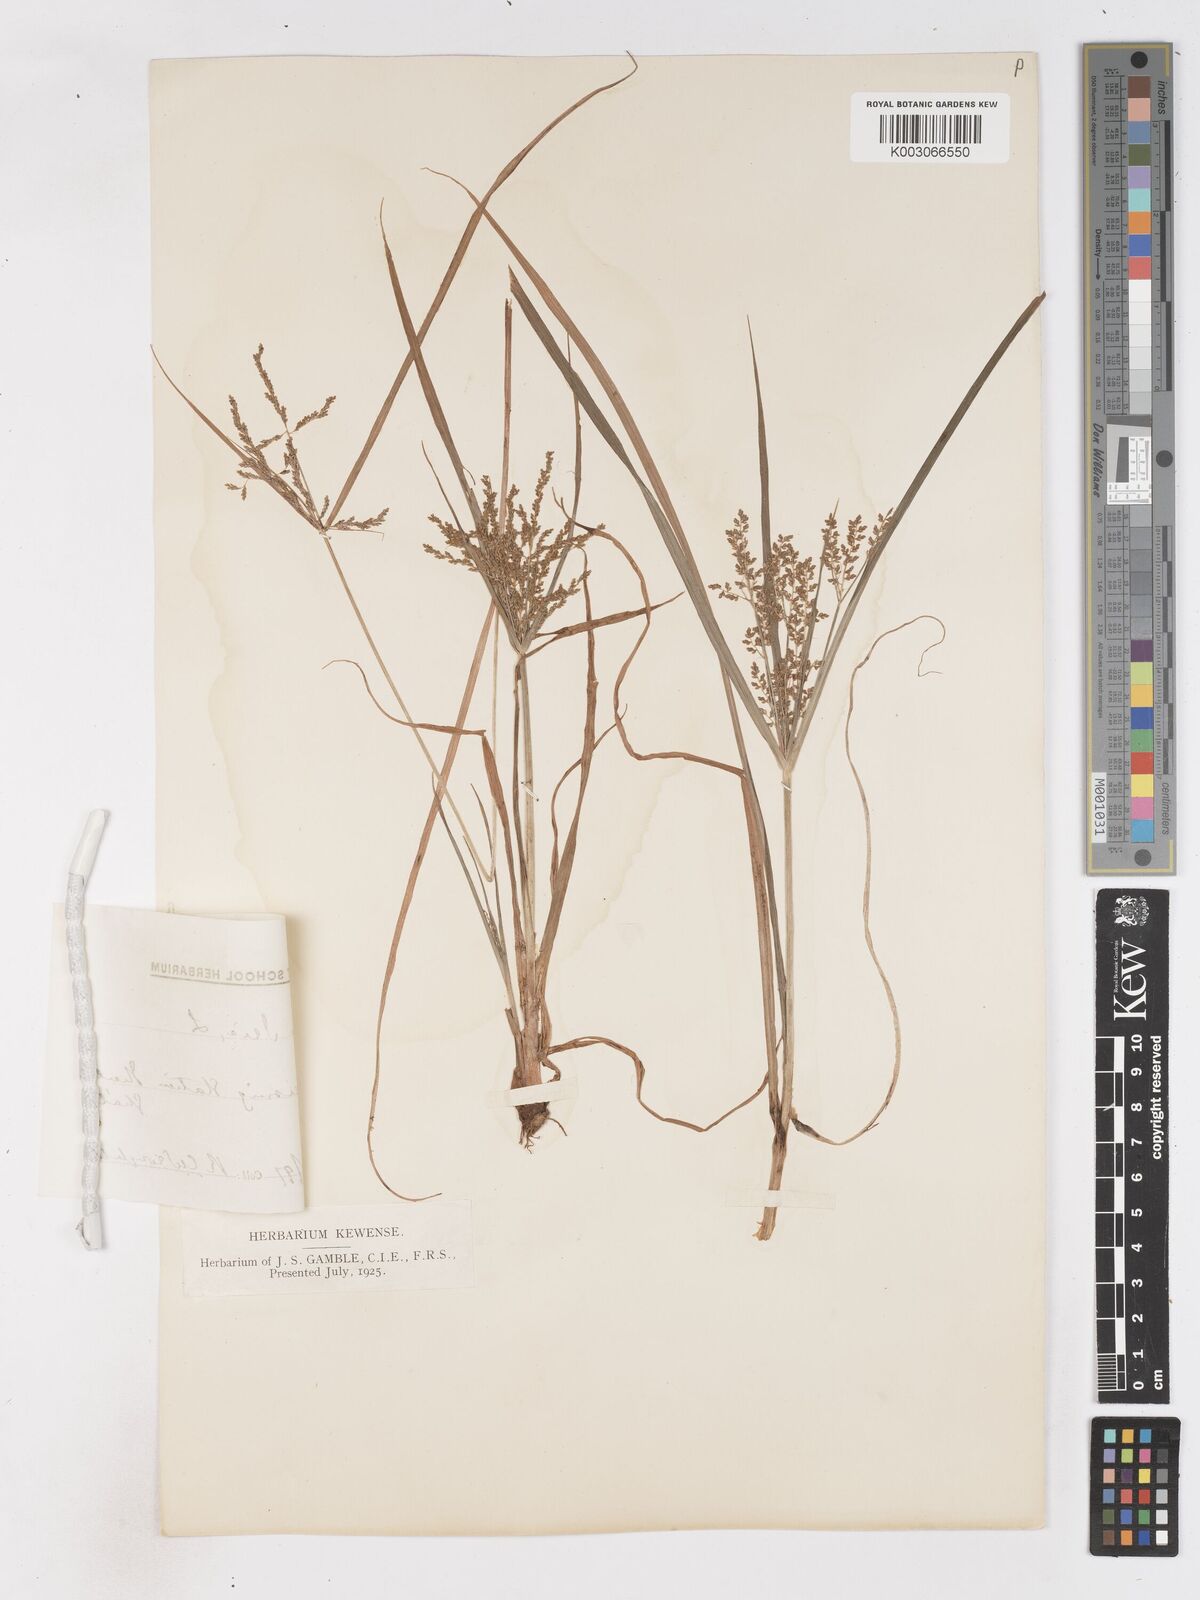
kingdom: Plantae
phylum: Tracheophyta
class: Liliopsida
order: Poales
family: Cyperaceae
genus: Cyperus
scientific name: Cyperus iria
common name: Ricefield flatsedge
